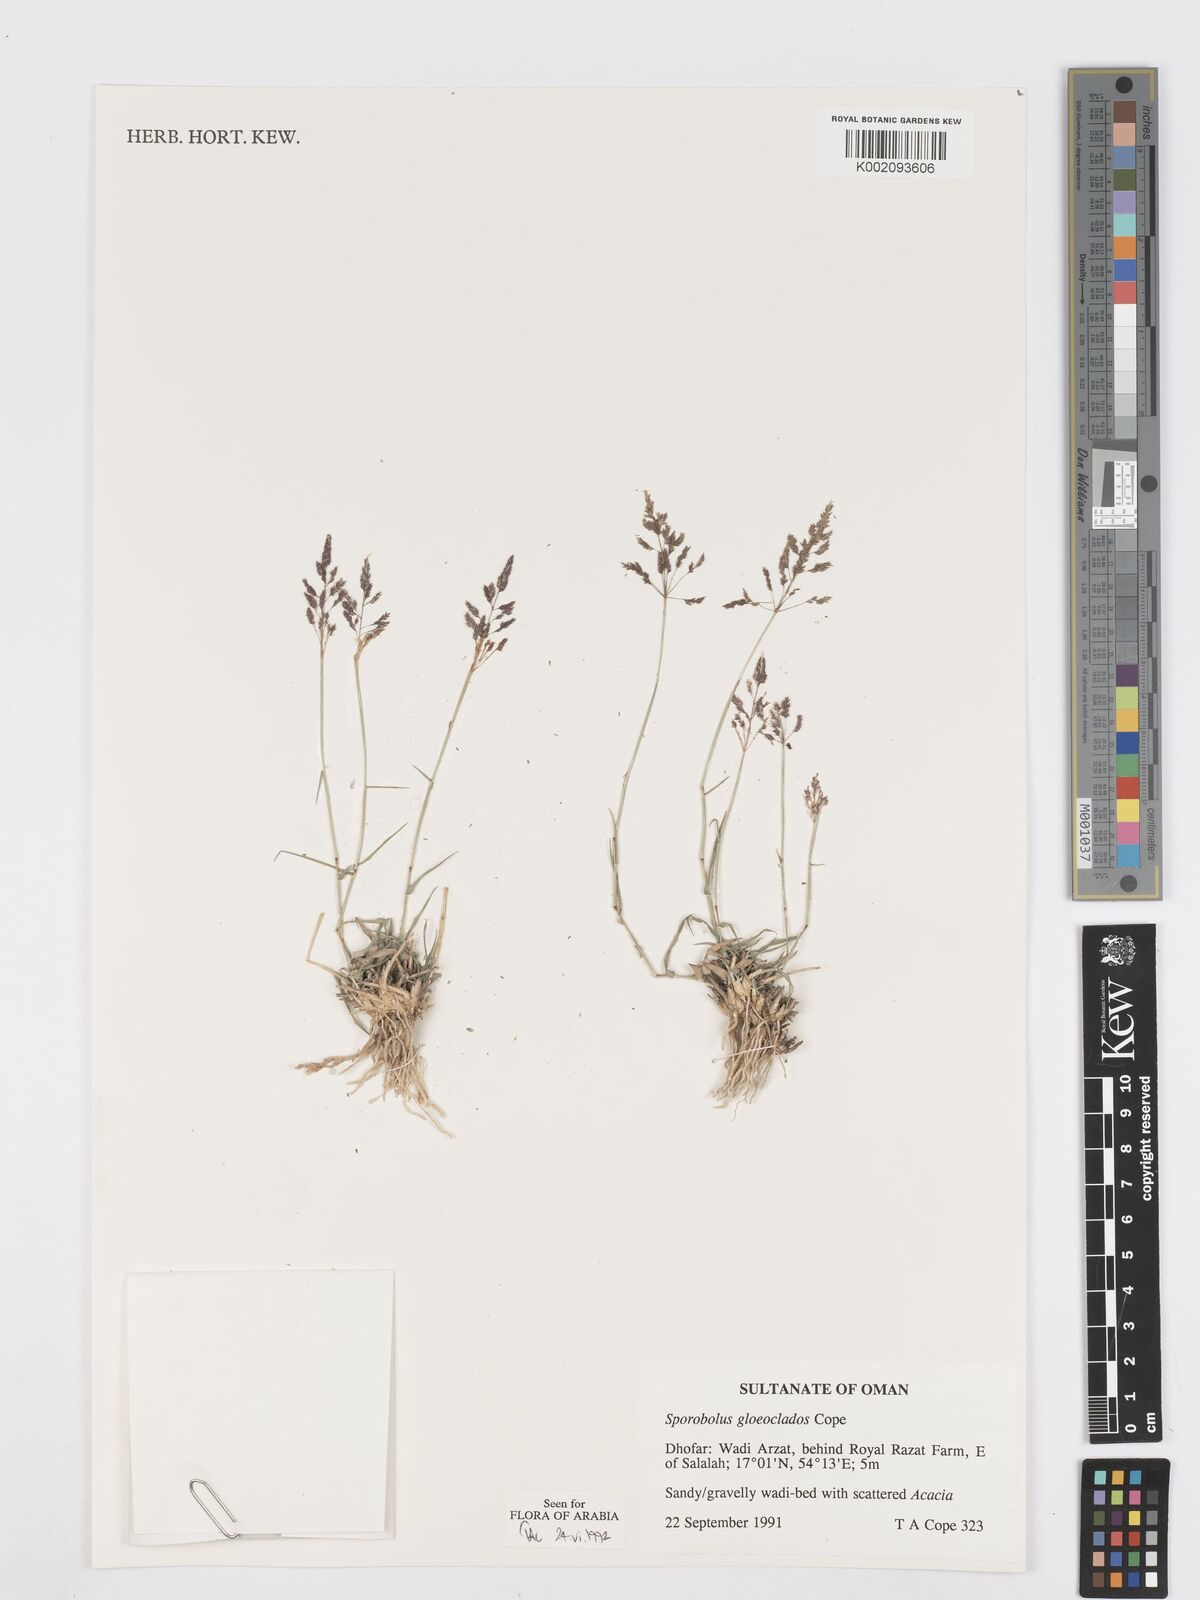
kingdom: Plantae
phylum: Tracheophyta
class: Liliopsida
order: Poales
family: Poaceae
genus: Sporobolus
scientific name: Sporobolus gloeoclados
